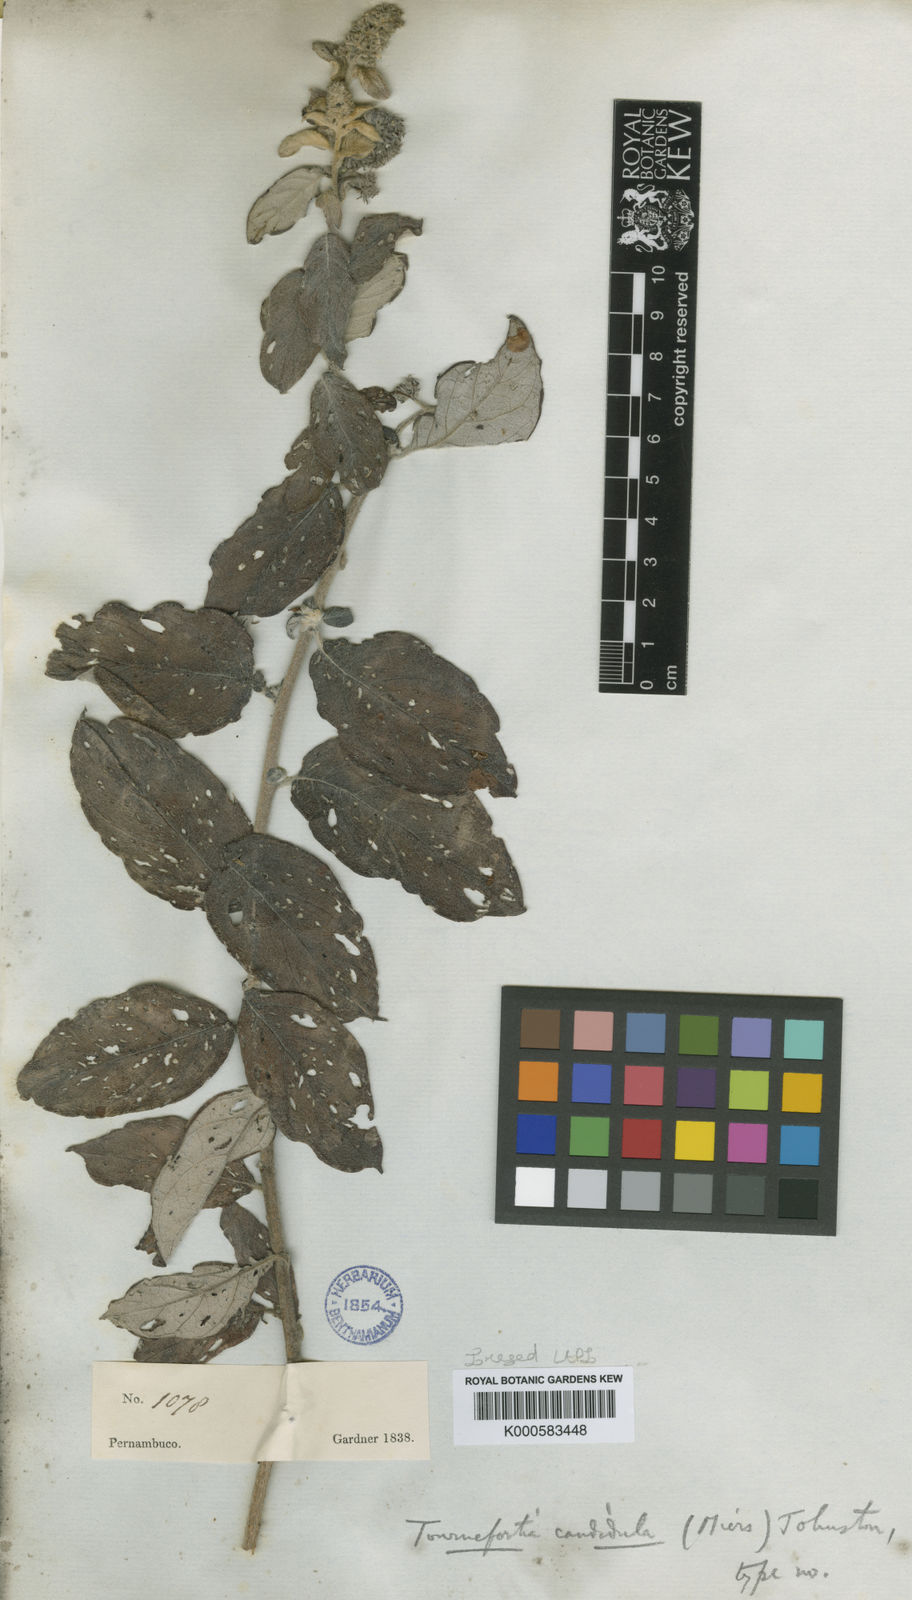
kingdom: Plantae
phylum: Tracheophyta
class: Magnoliopsida
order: Boraginales
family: Heliotropiaceae
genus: Myriopus
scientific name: Myriopus candidulus
